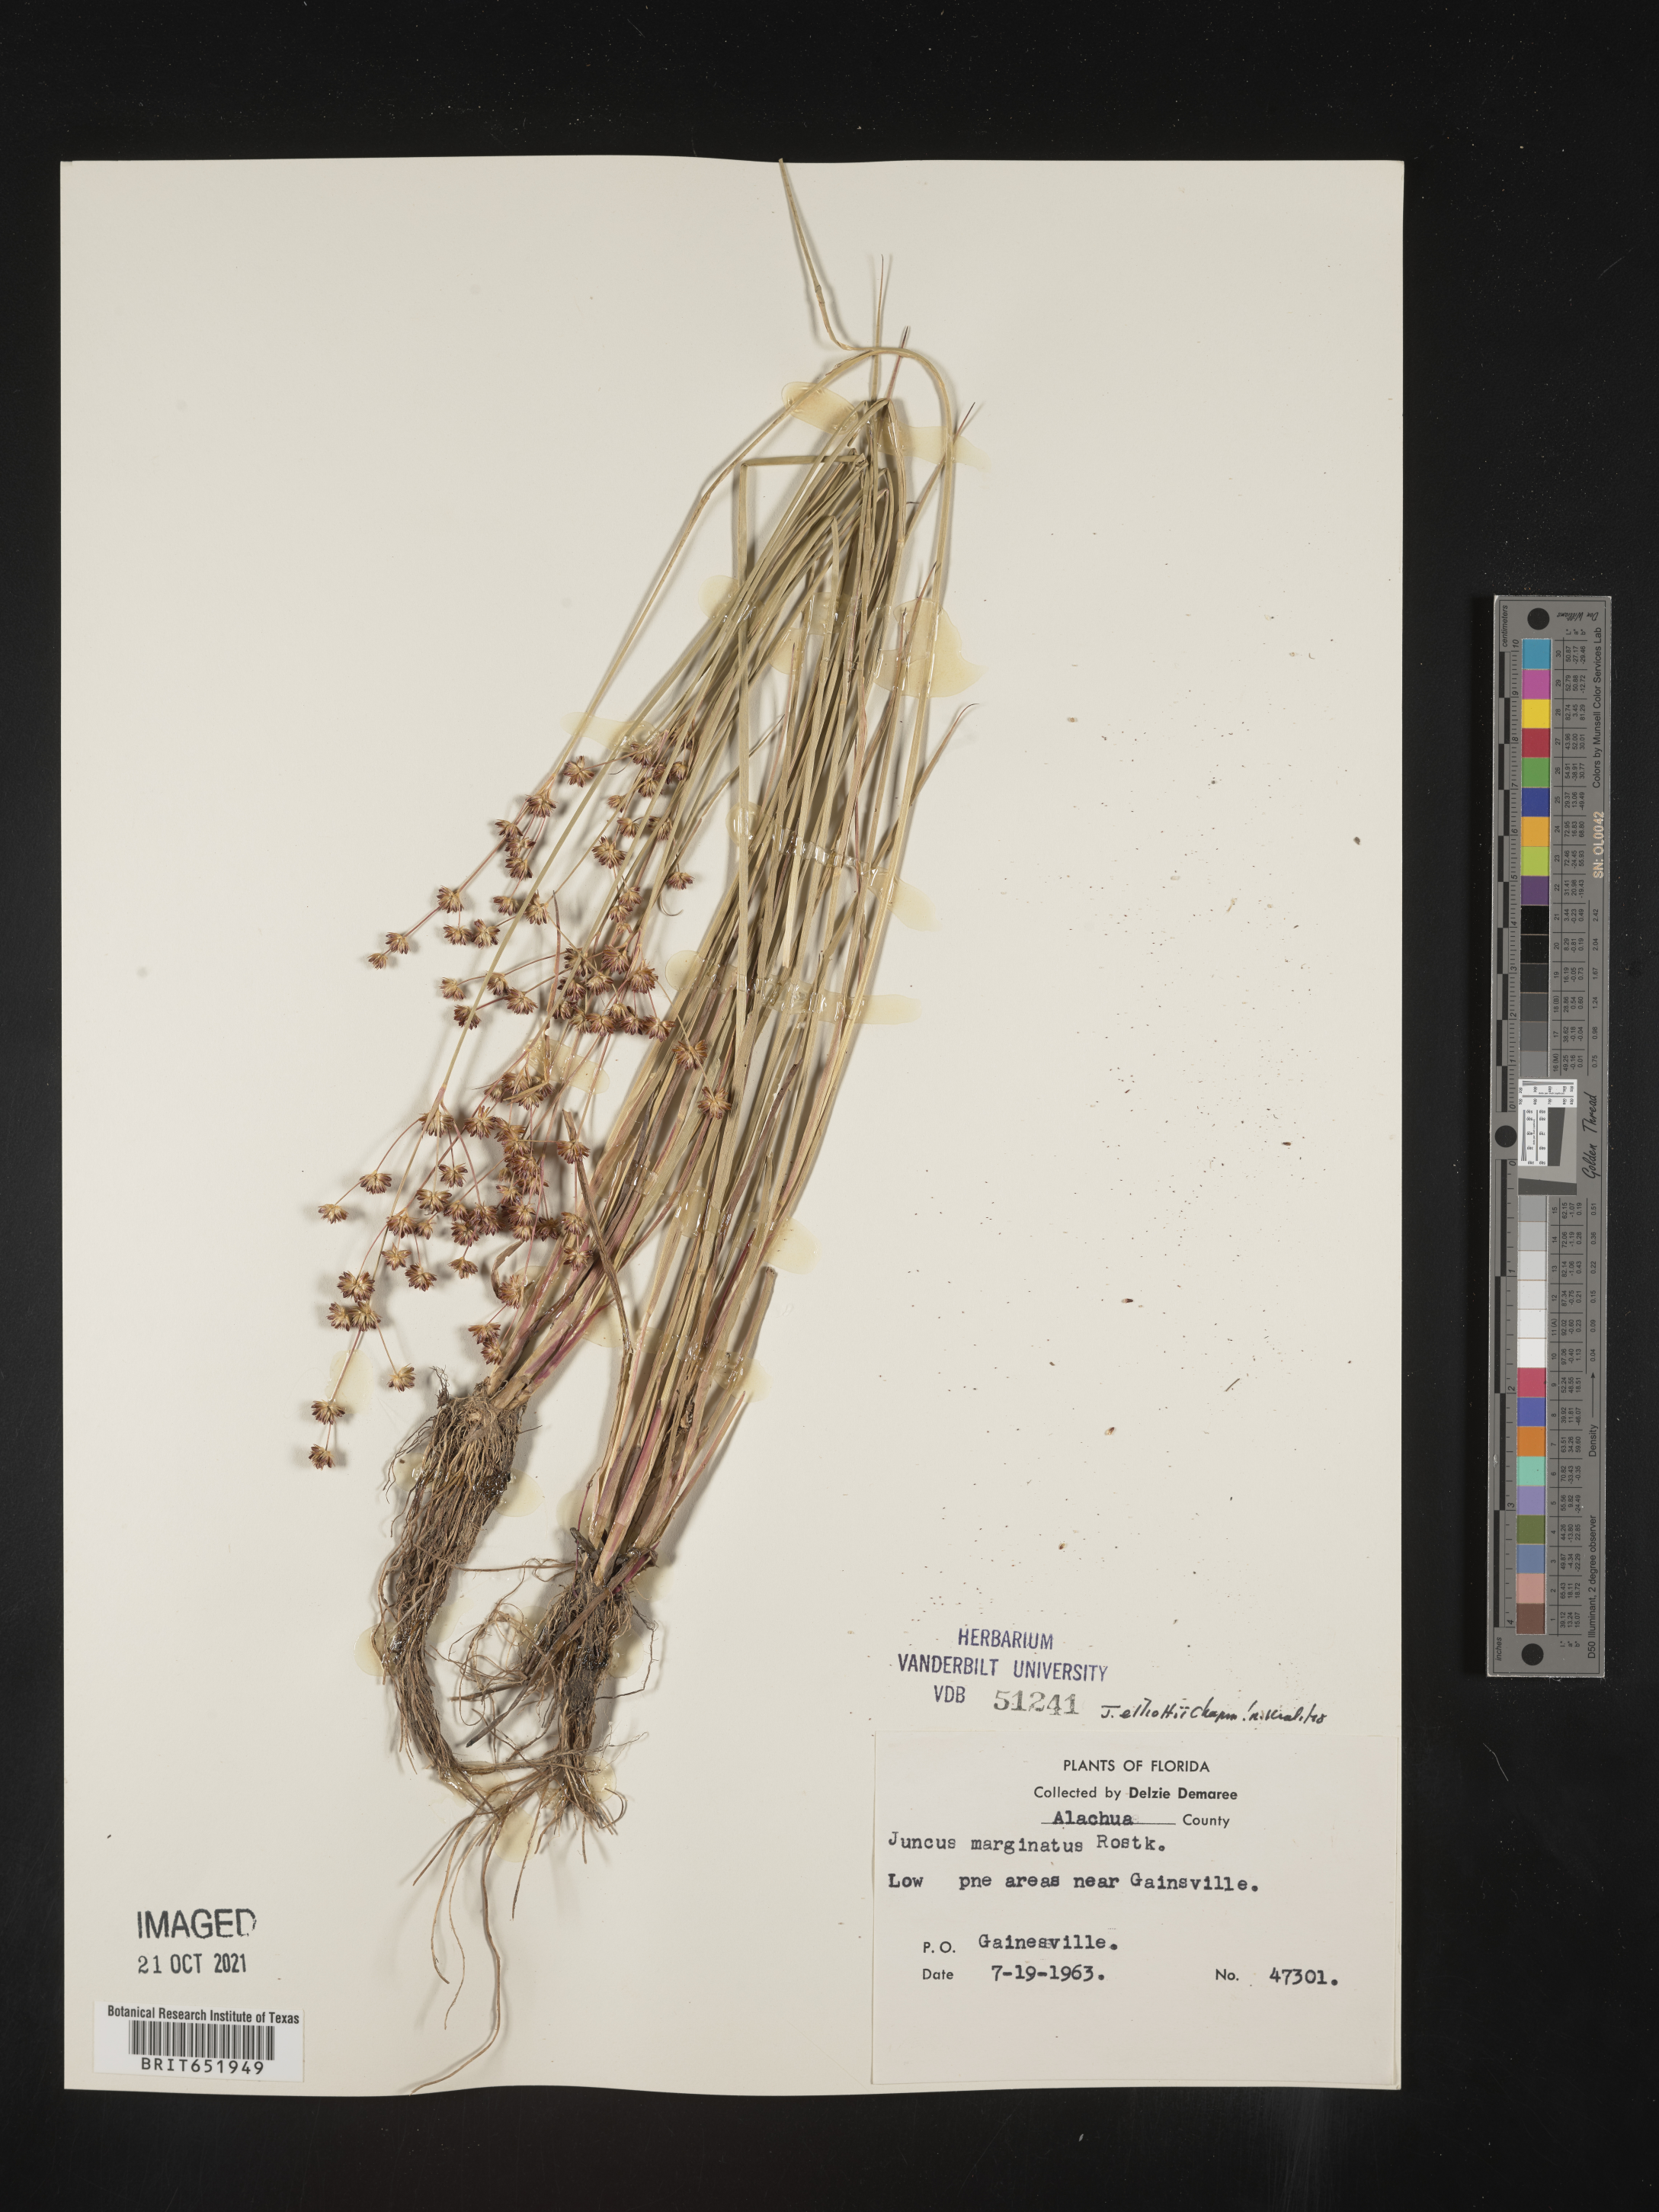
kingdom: Plantae
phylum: Tracheophyta
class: Liliopsida
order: Poales
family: Juncaceae
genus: Juncus
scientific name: Juncus elliottii
